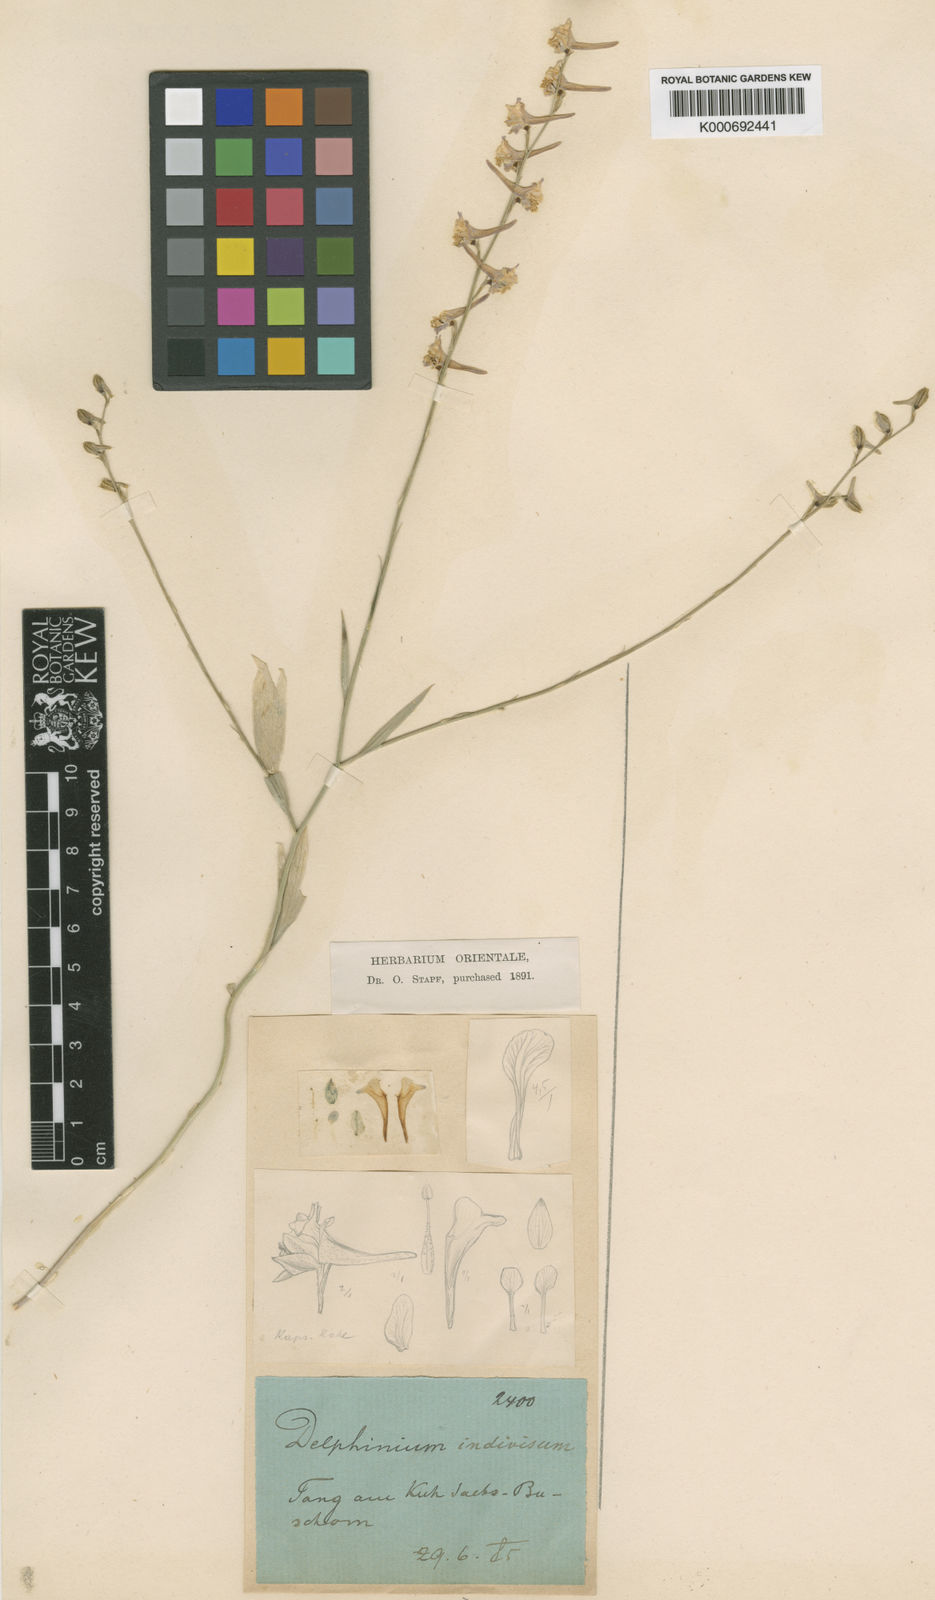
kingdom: Plantae
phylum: Tracheophyta
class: Magnoliopsida
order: Ranunculales
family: Ranunculaceae
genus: Delphinium
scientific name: Delphinium
